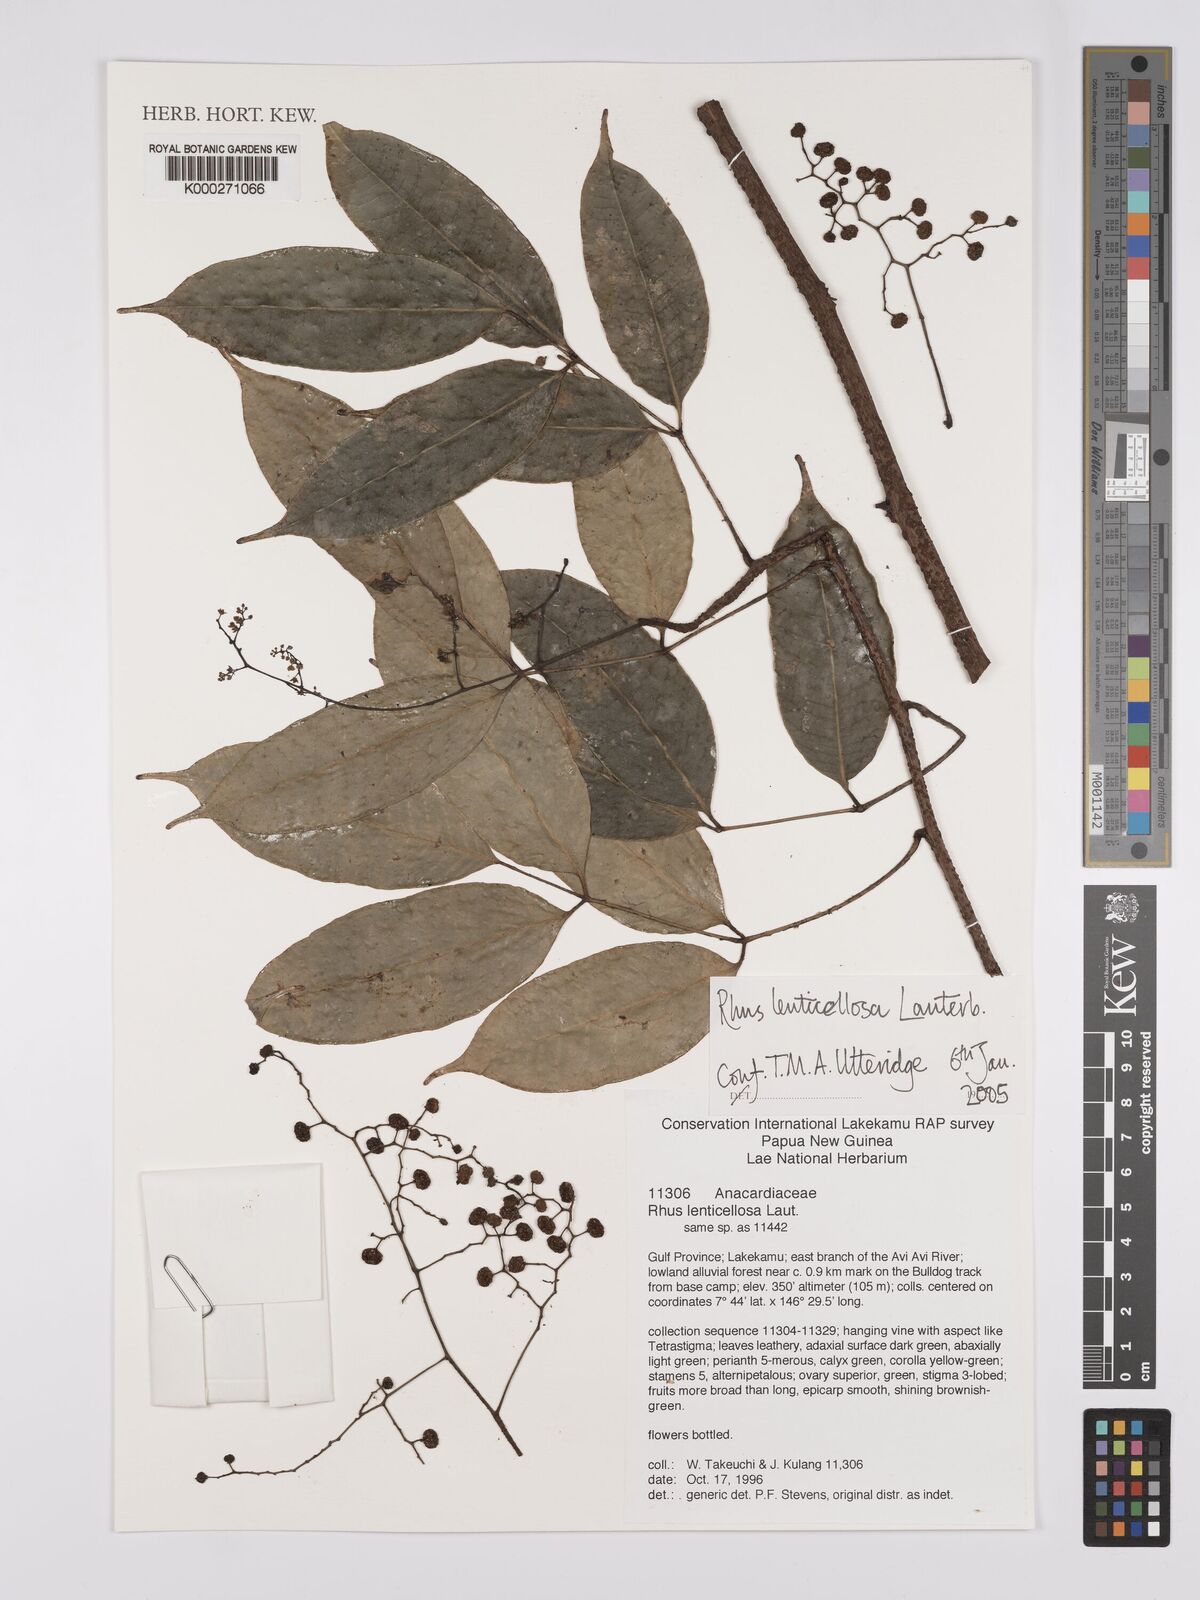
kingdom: Plantae
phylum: Tracheophyta
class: Magnoliopsida
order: Sapindales
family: Anacardiaceae
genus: Rhus
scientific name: Rhus lenticellosa
